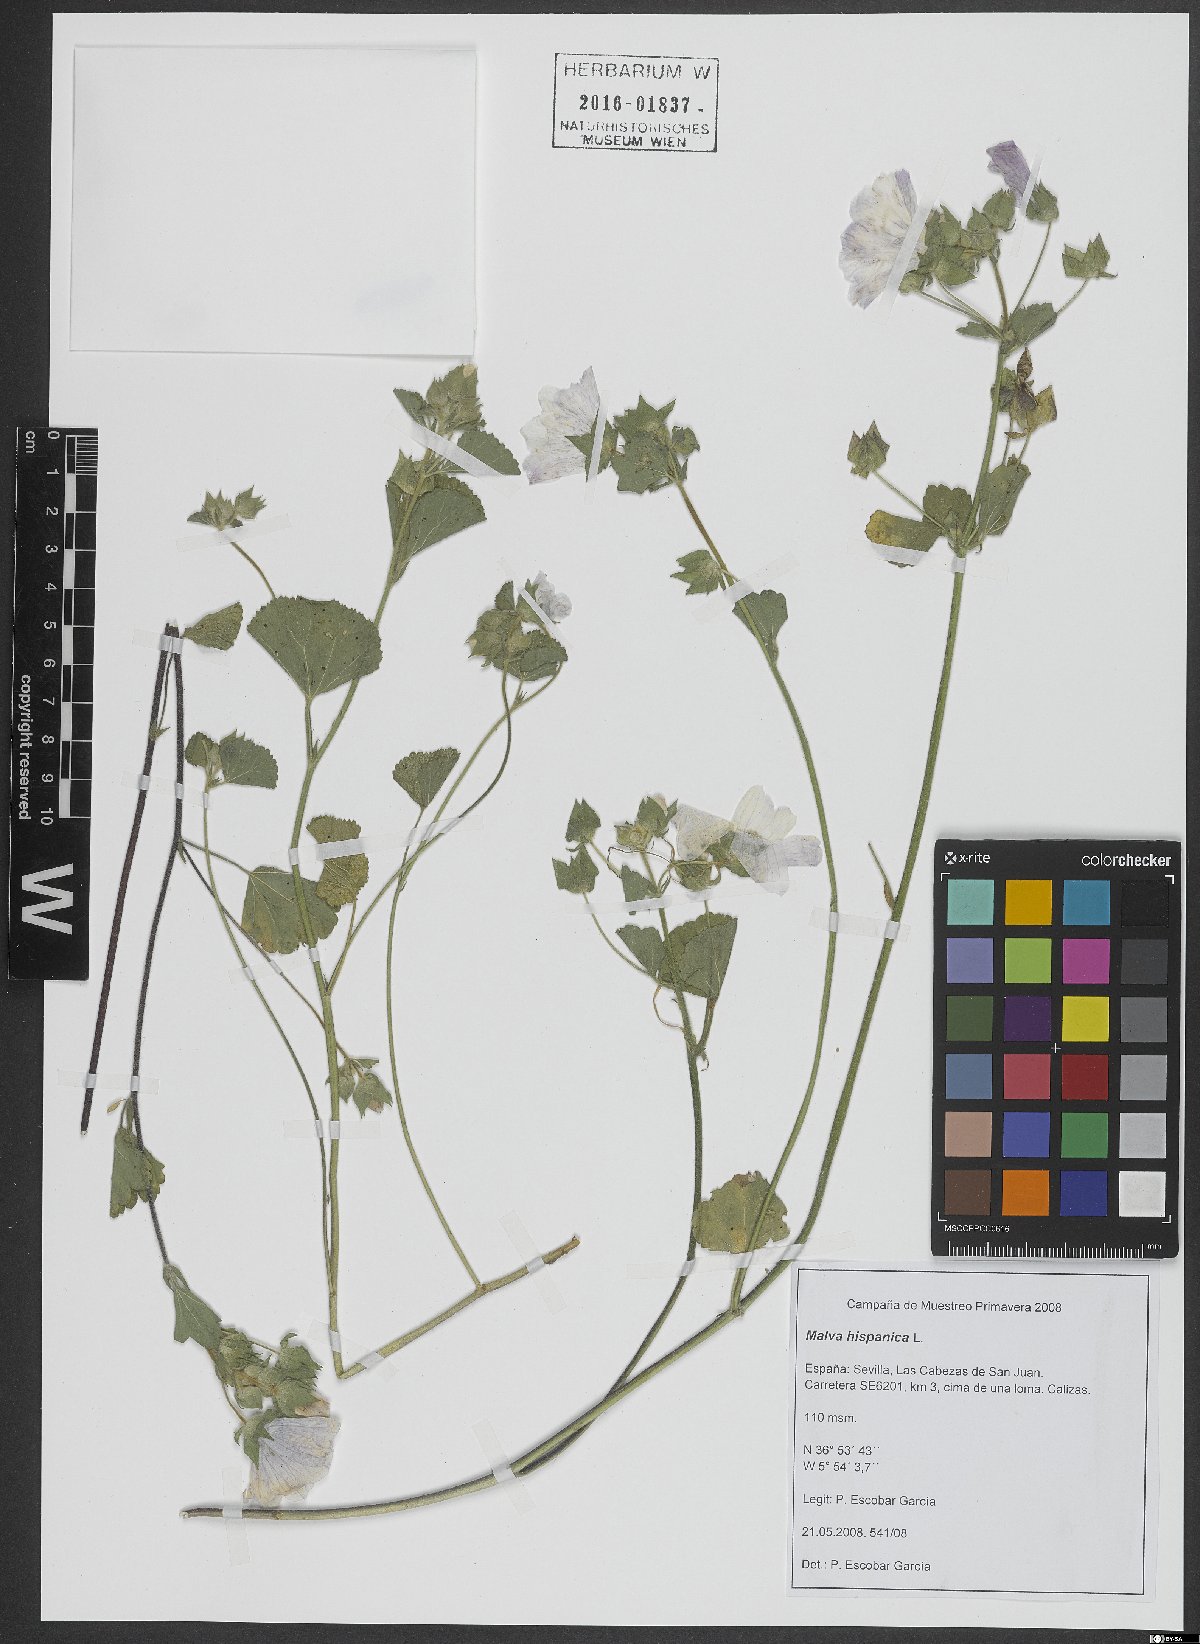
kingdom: Plantae
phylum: Tracheophyta
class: Magnoliopsida
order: Malvales
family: Malvaceae
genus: Malva
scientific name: Malva hispanica
